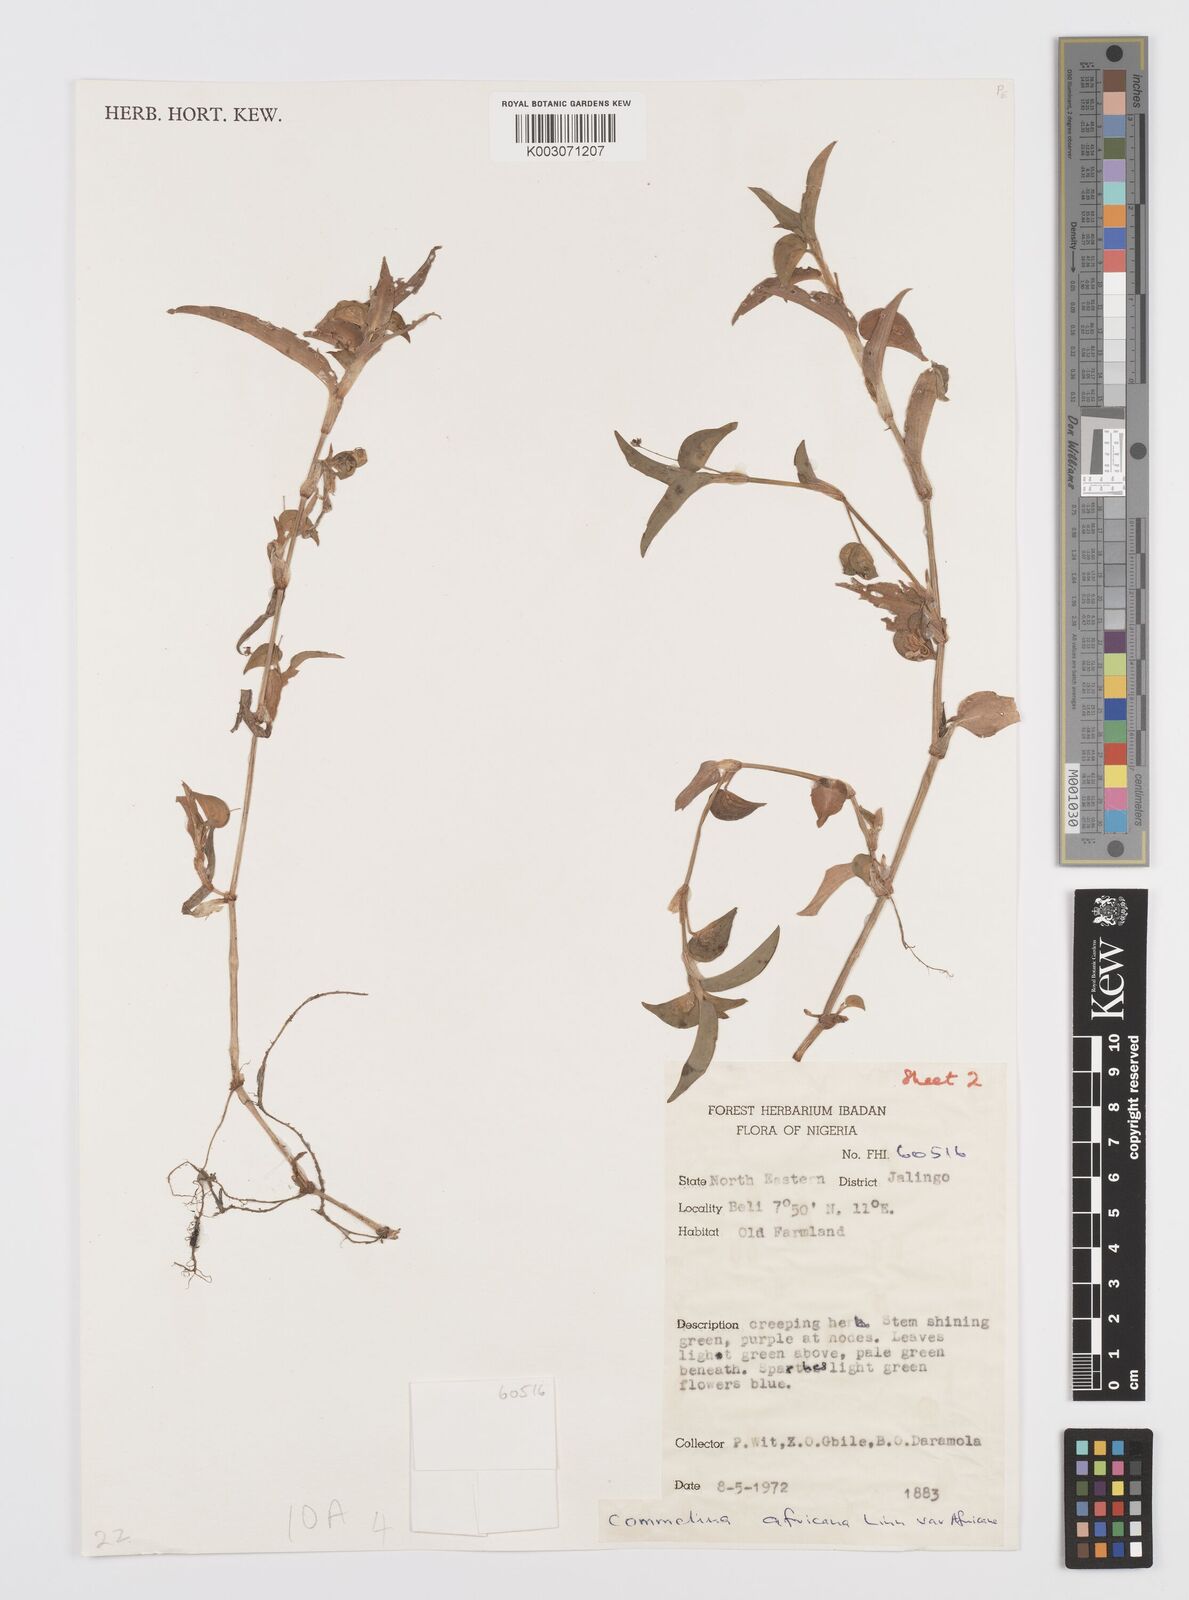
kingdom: Plantae
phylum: Tracheophyta
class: Liliopsida
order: Commelinales
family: Commelinaceae
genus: Commelina
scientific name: Commelina diffusa
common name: Climbing dayflower
